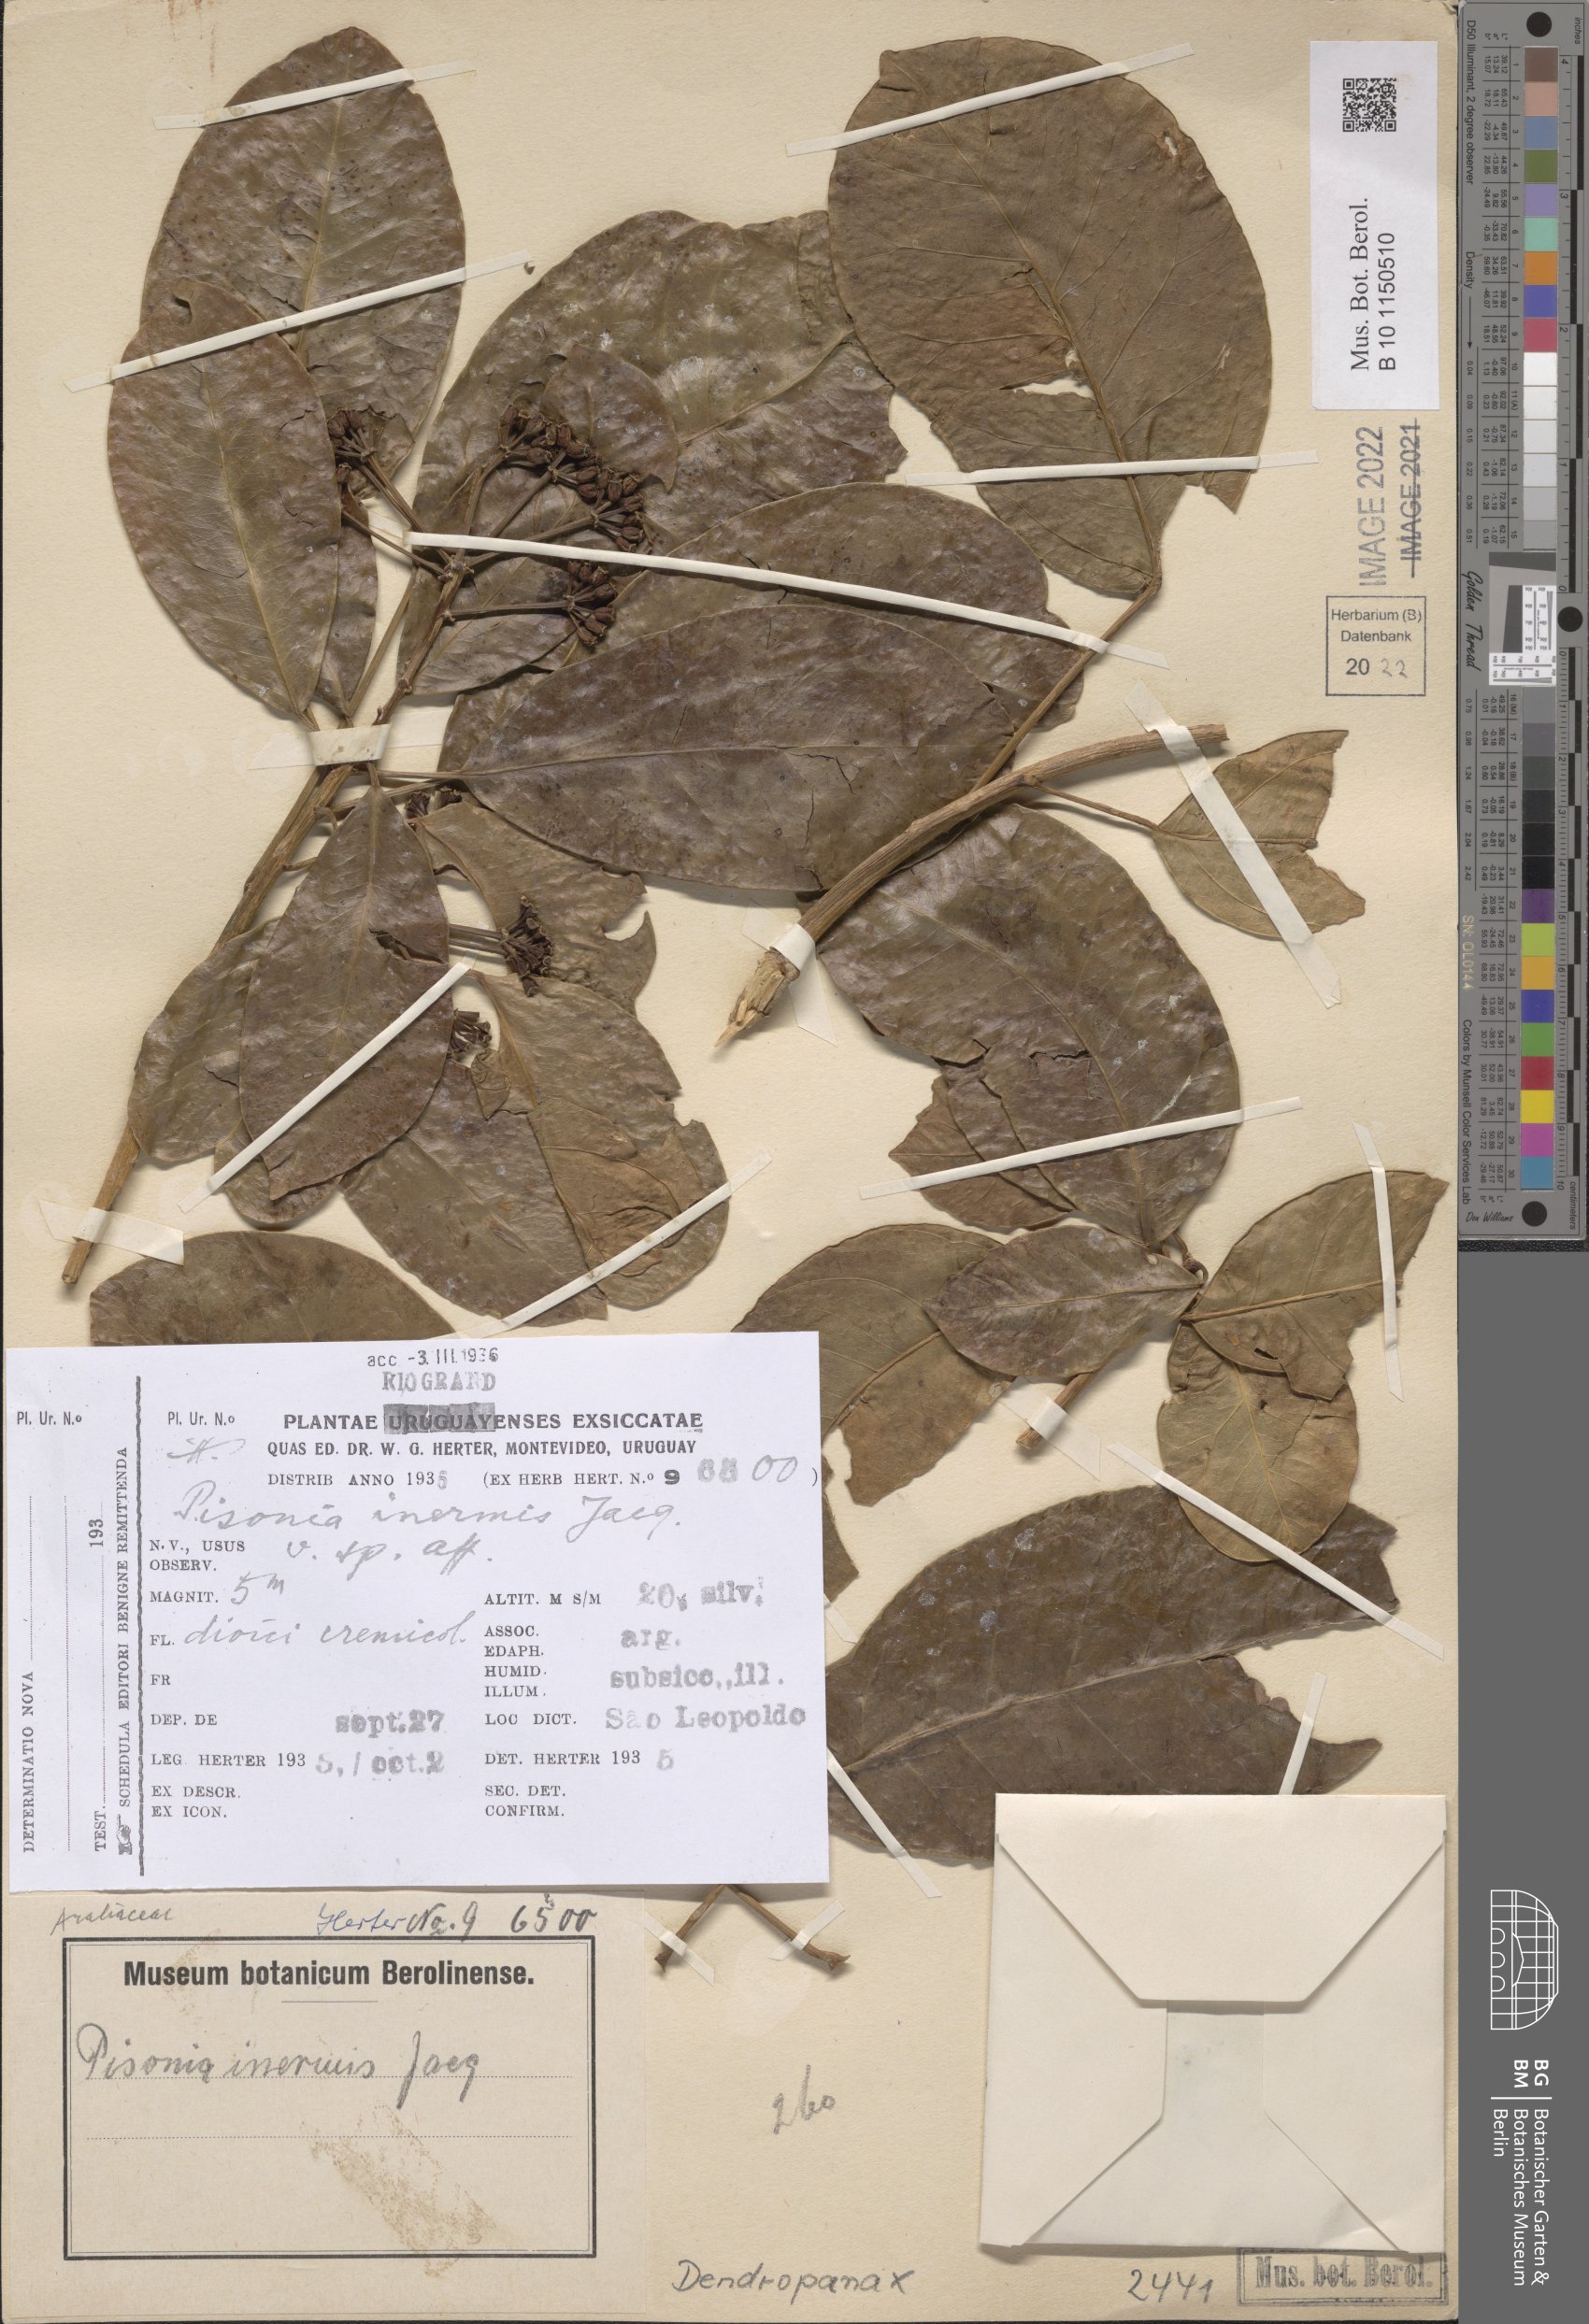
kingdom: Plantae
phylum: Tracheophyta
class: Magnoliopsida
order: Apiales
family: Araliaceae
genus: Dendropanax
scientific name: Dendropanax
